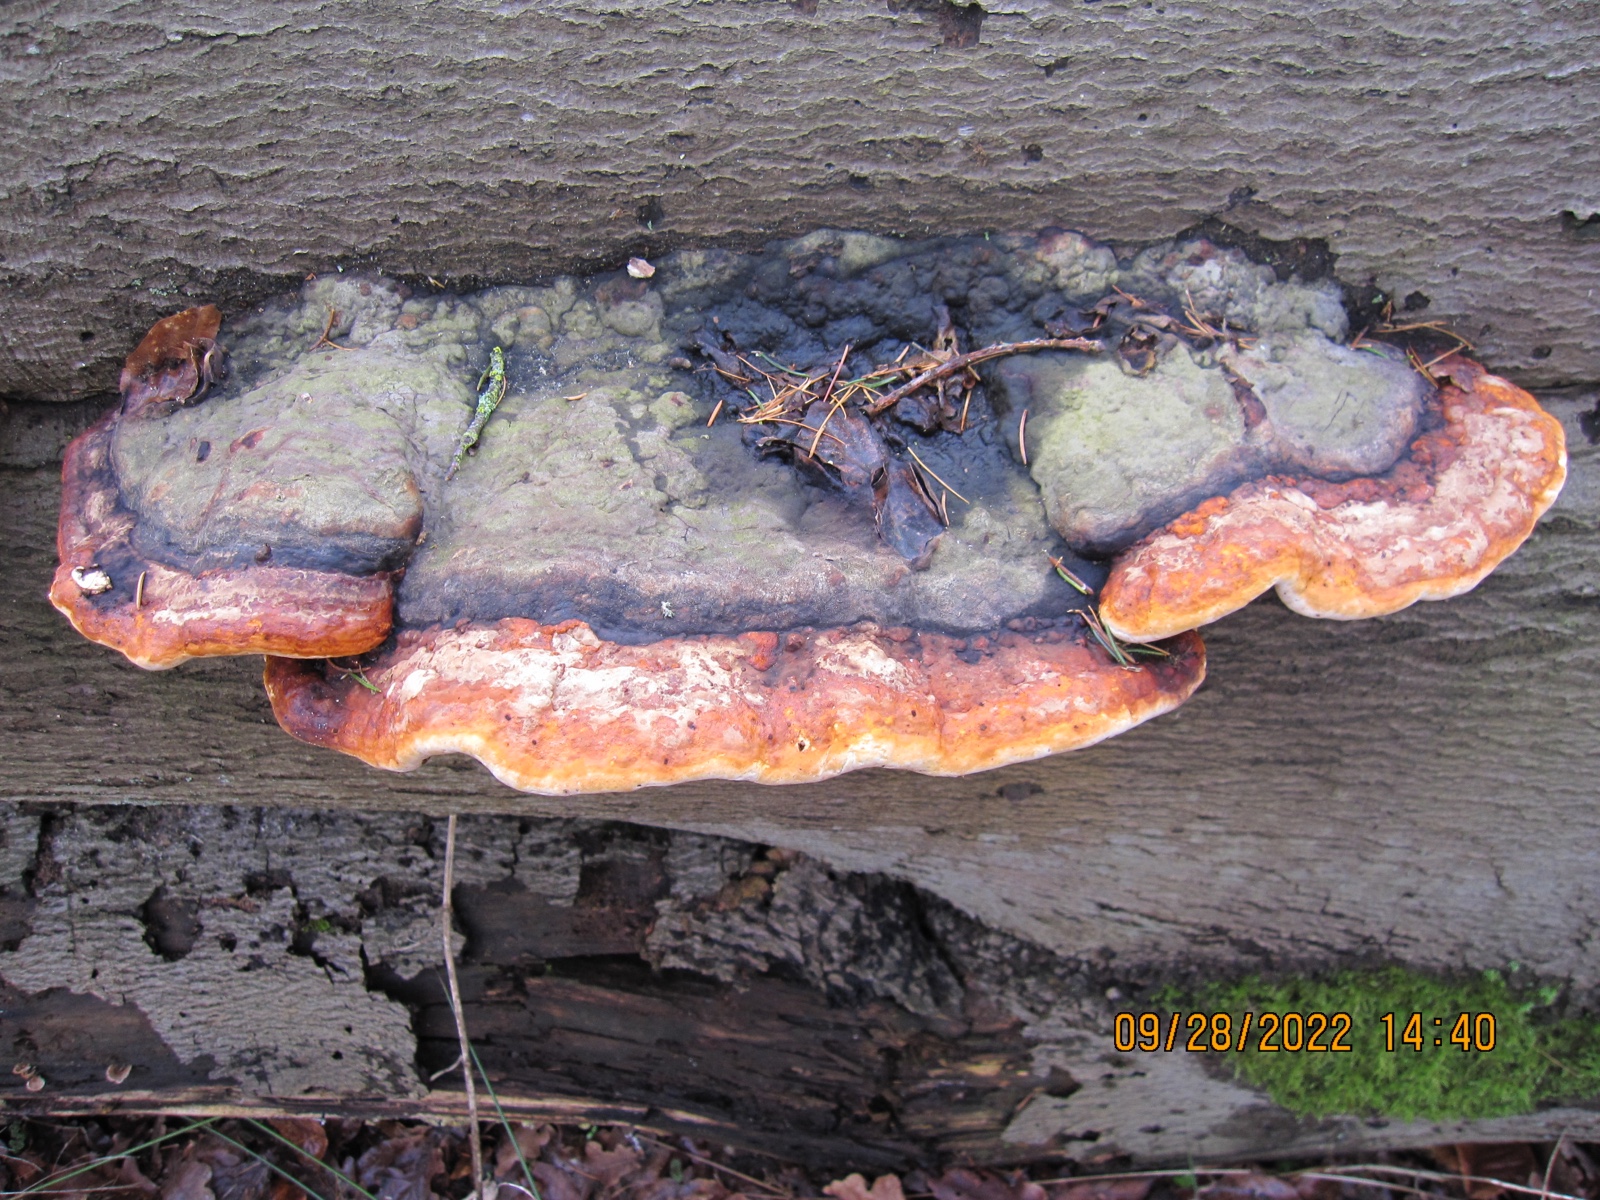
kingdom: Fungi
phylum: Basidiomycota
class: Agaricomycetes
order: Polyporales
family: Fomitopsidaceae
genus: Fomitopsis
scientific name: Fomitopsis pinicola
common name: randbæltet hovporesvamp
